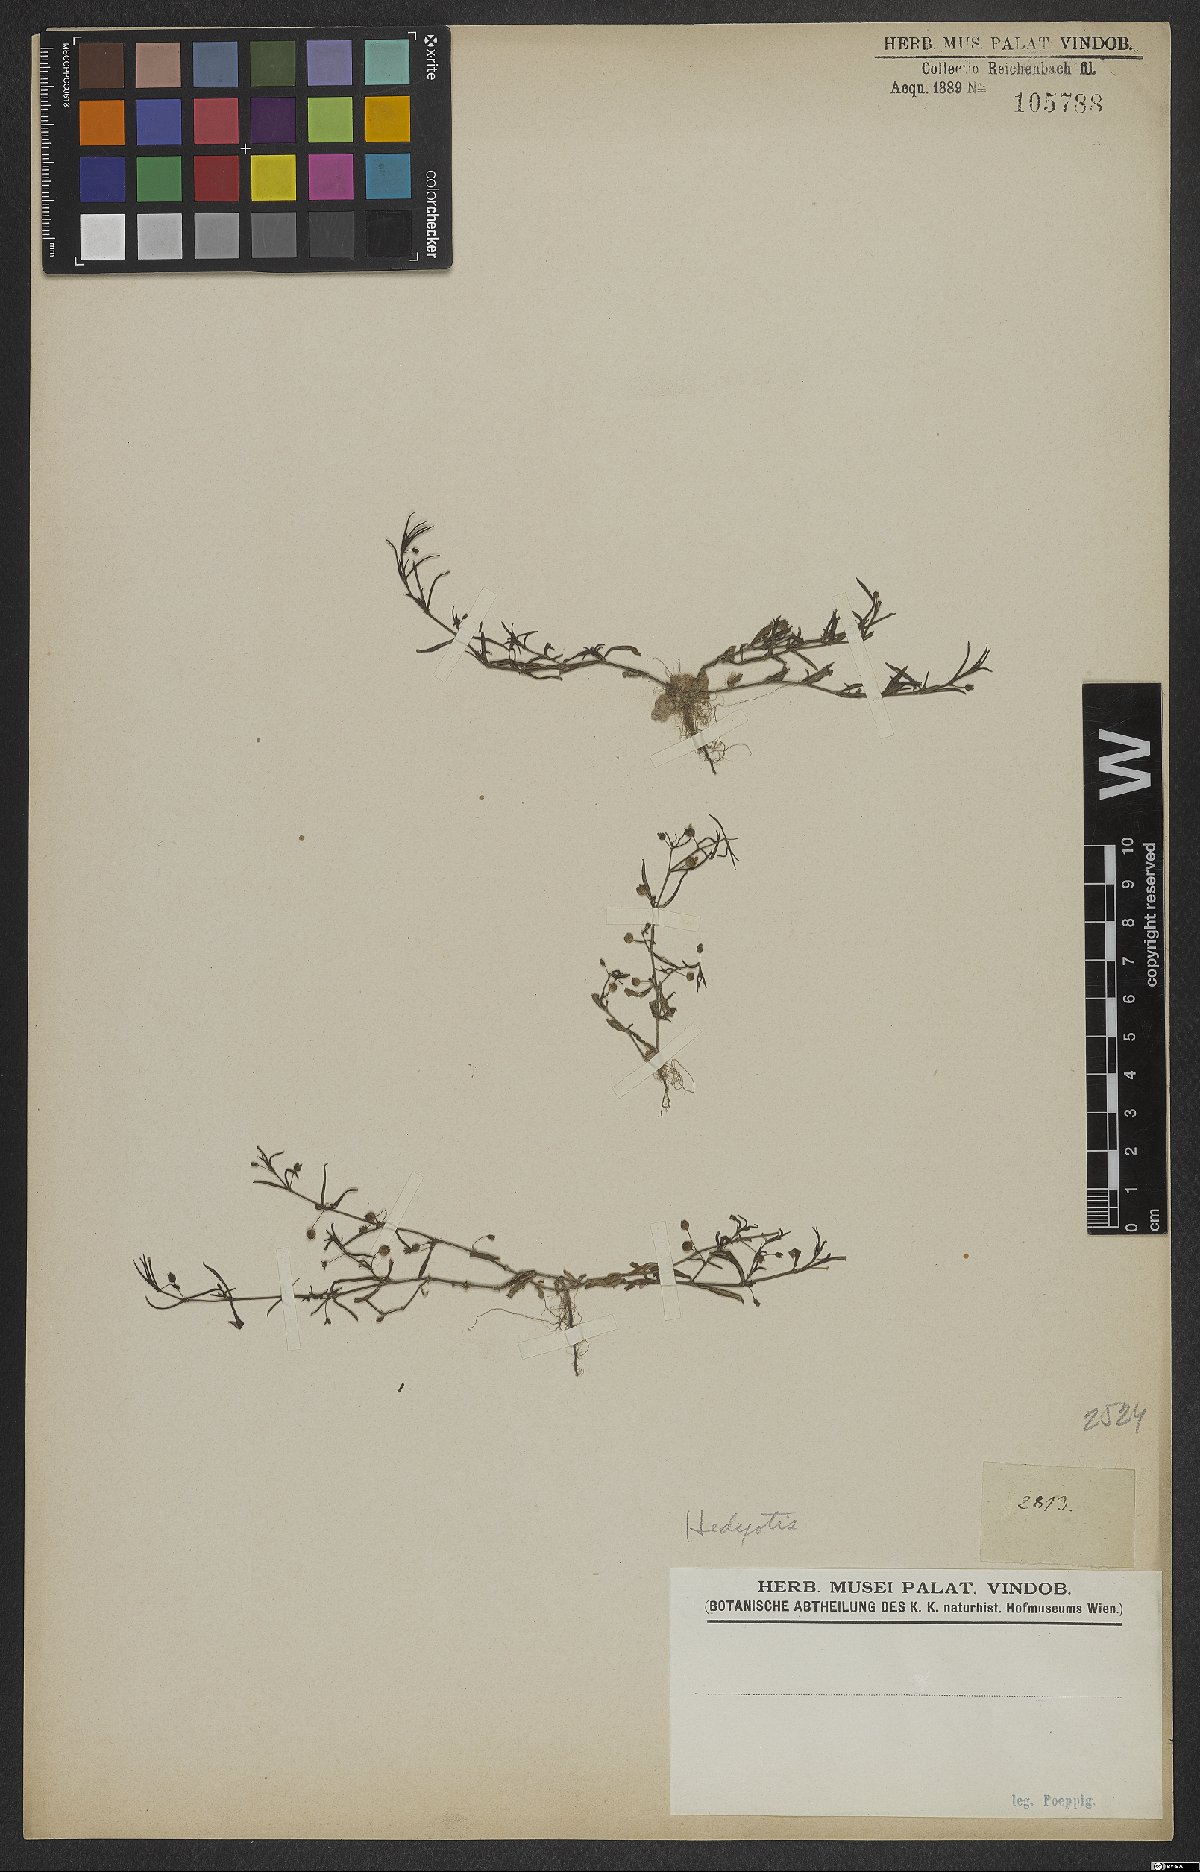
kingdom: Plantae
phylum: Tracheophyta
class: Magnoliopsida
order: Gentianales
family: Rubiaceae
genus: Hedyotis
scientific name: Hedyotis
